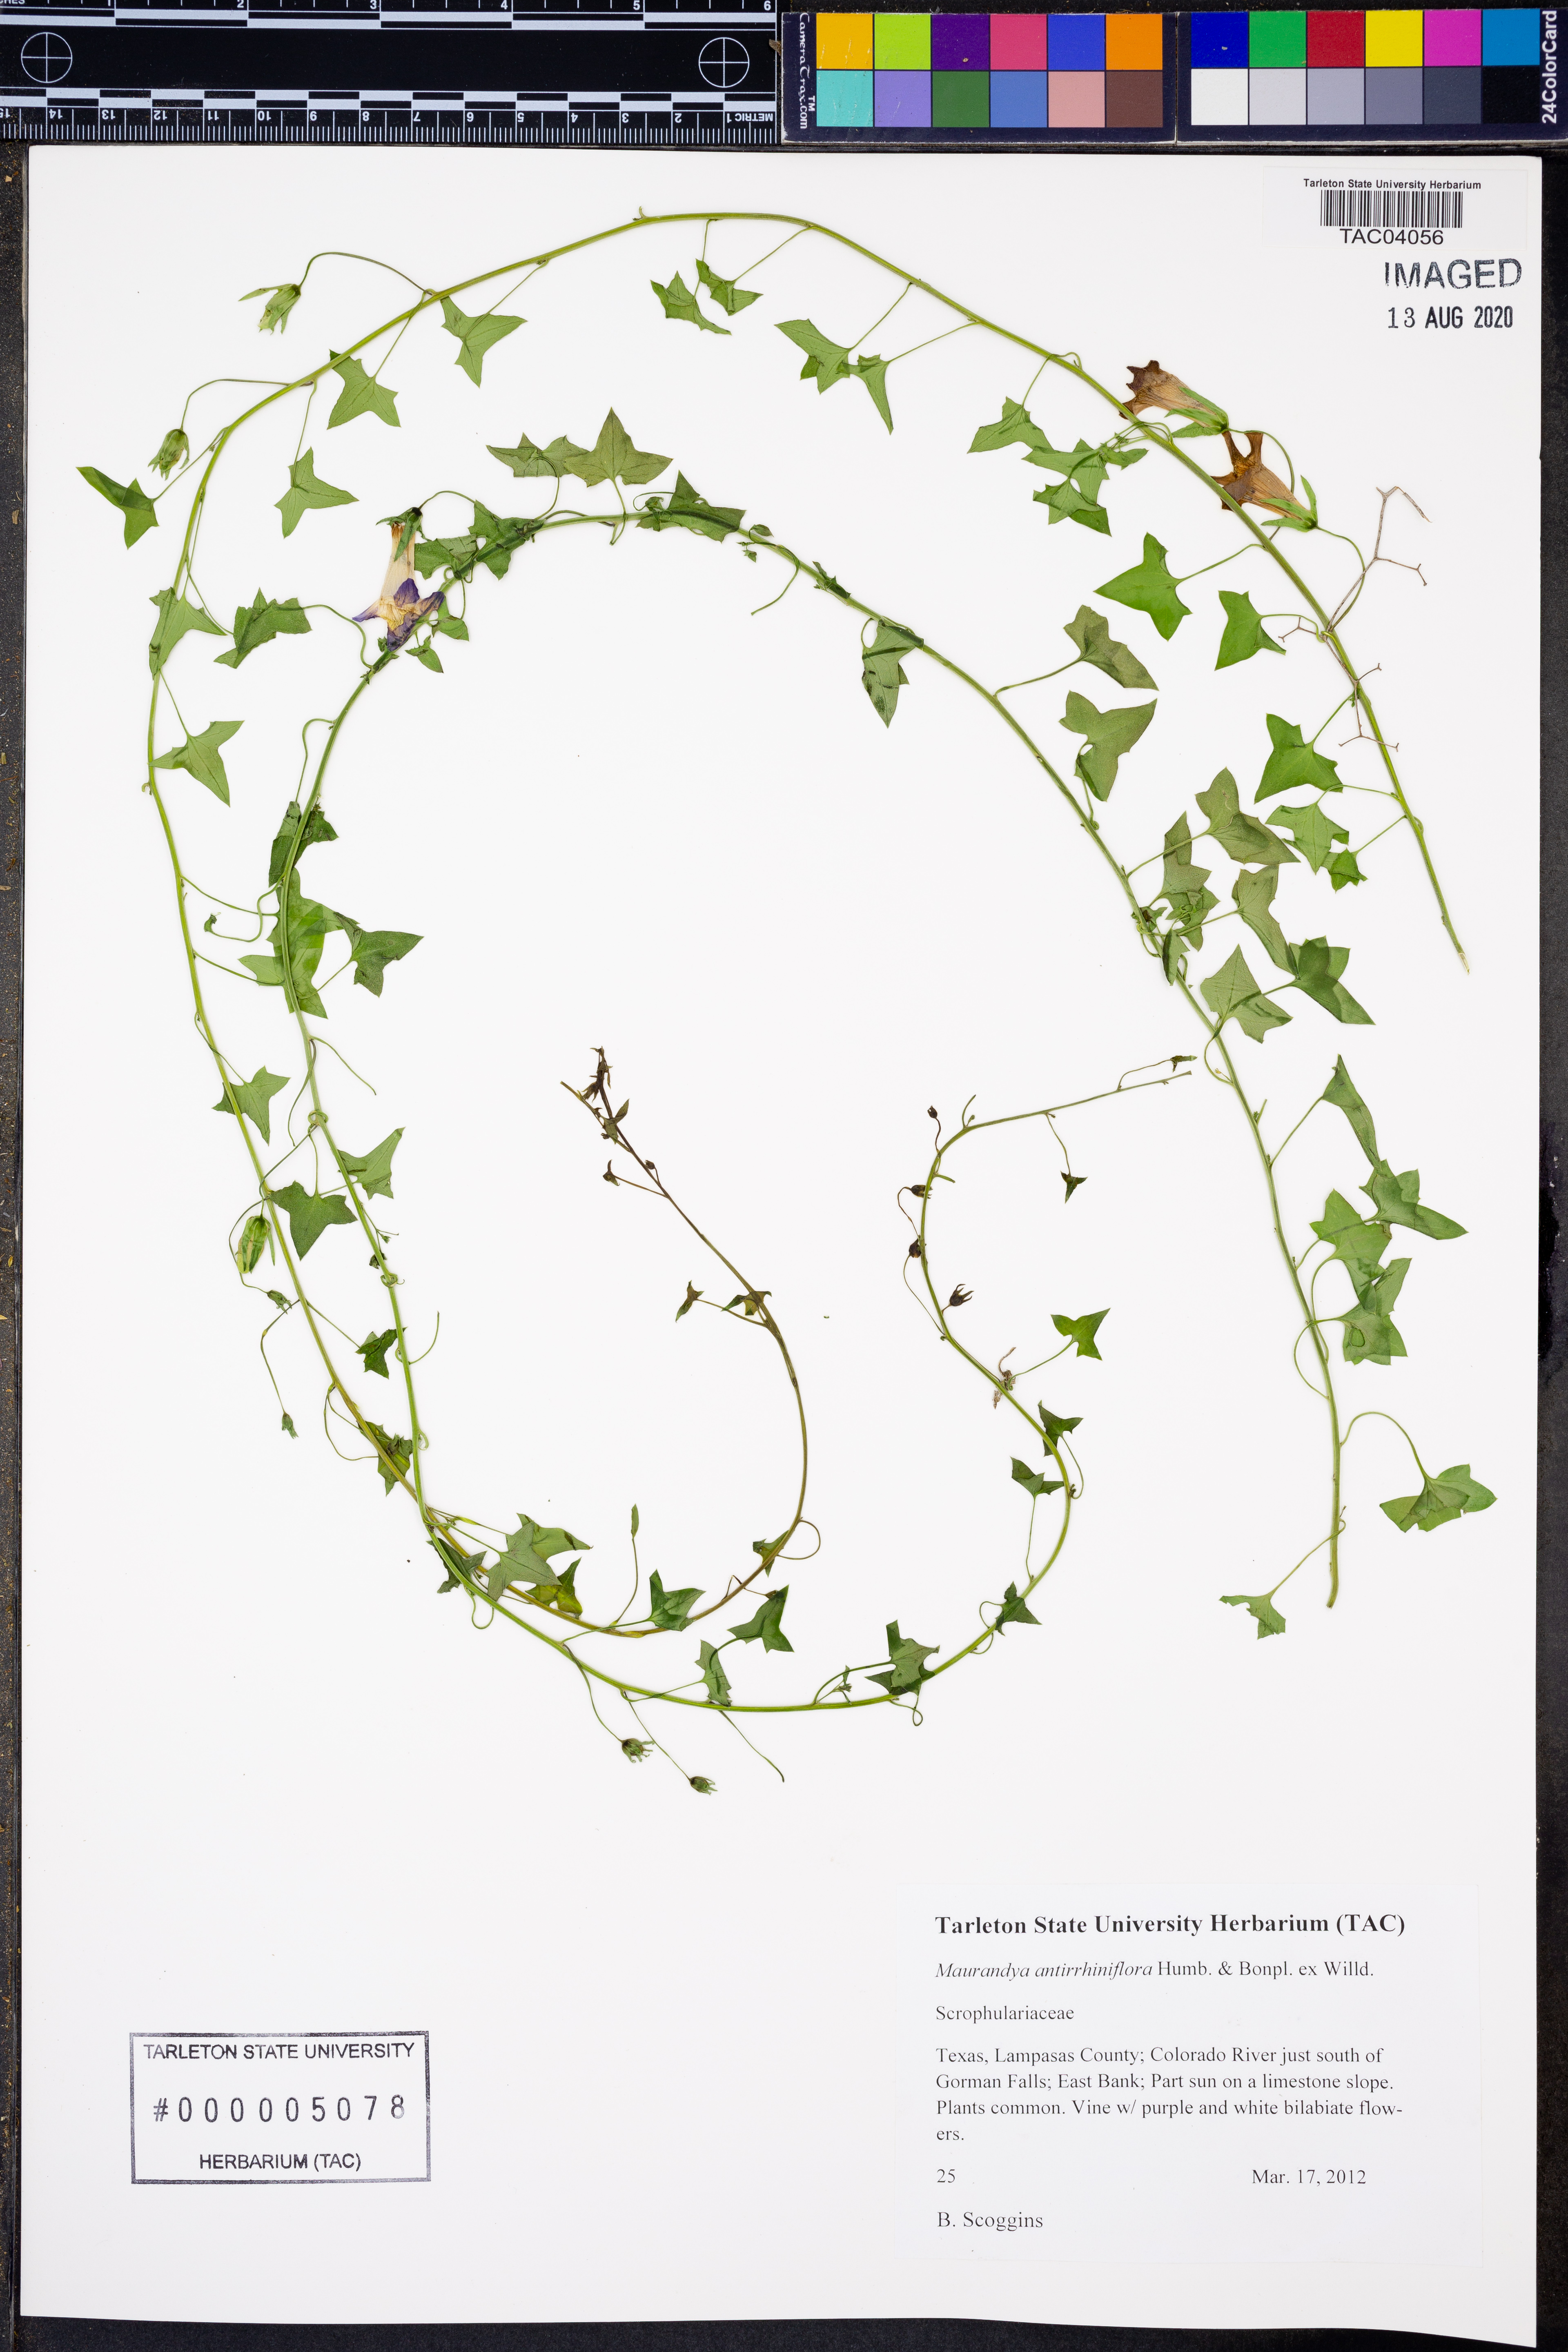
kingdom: Plantae
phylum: Tracheophyta
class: Magnoliopsida
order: Lamiales
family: Plantaginaceae
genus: Maurandella
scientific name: Maurandella antirrhiniflora
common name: Violet twining-snapdragon
